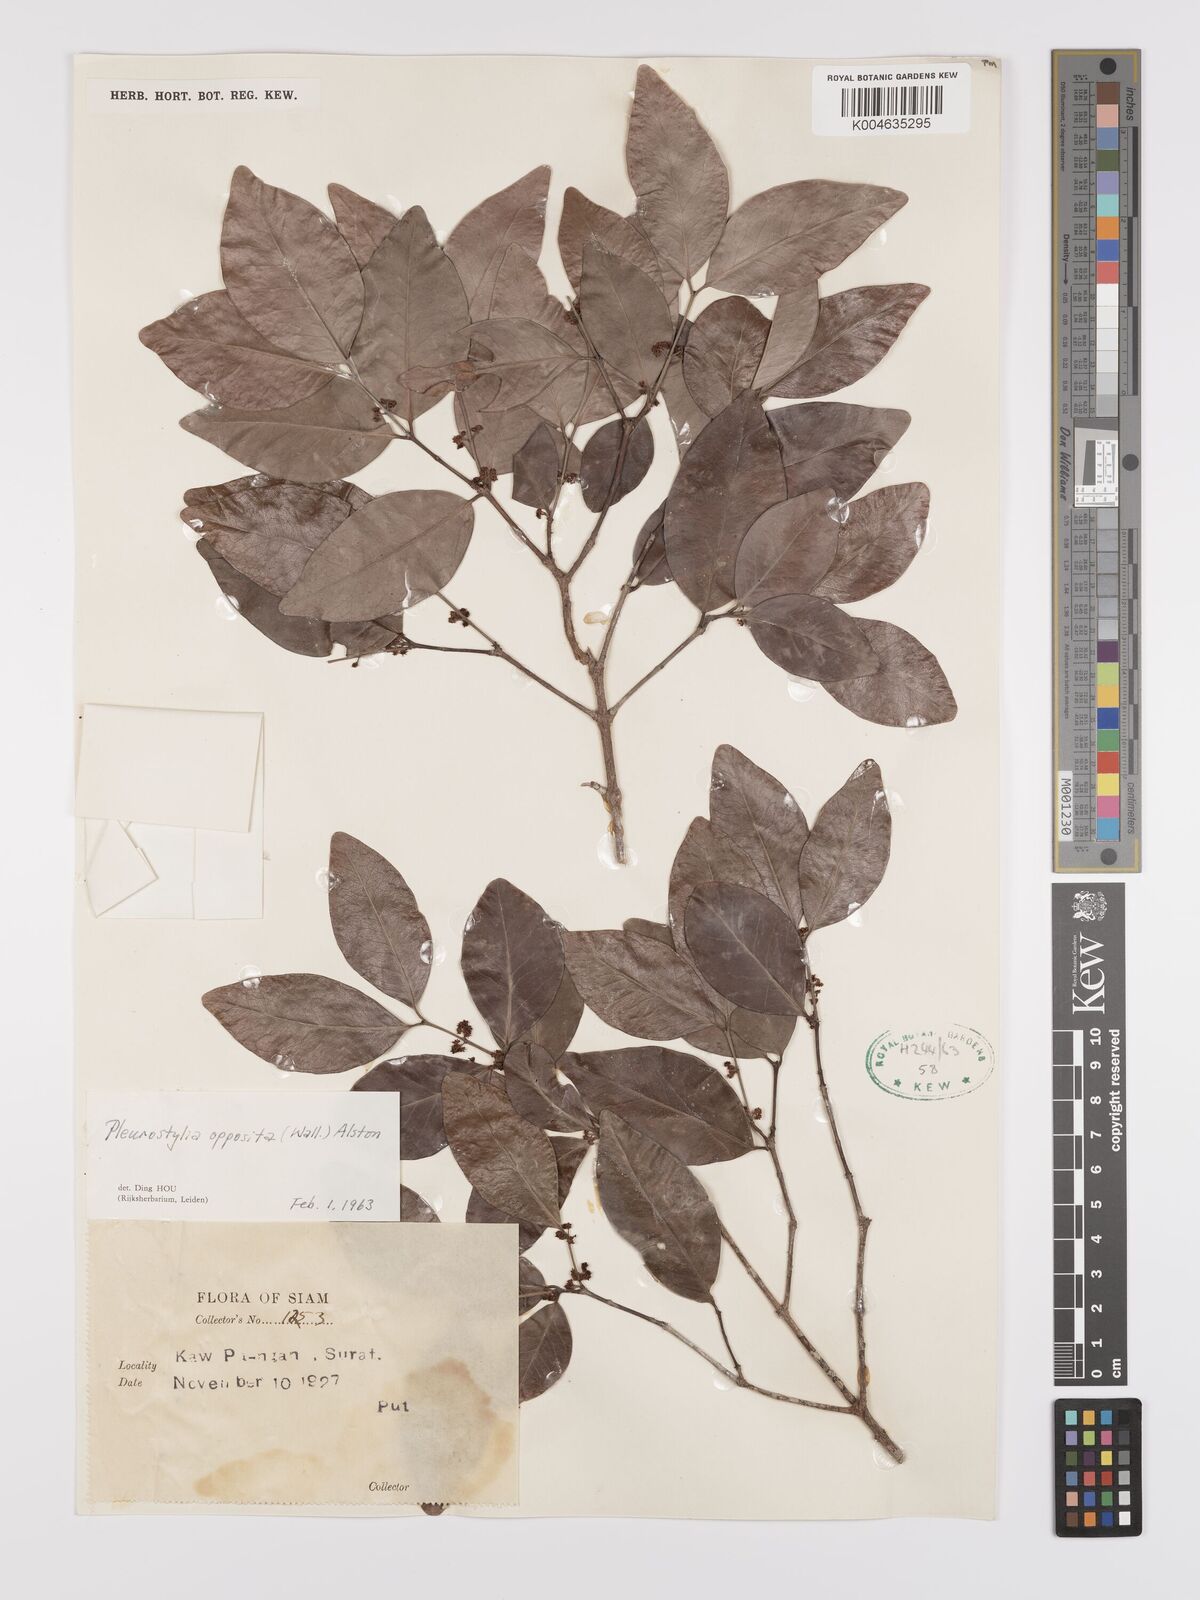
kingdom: Plantae
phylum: Tracheophyta
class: Magnoliopsida
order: Celastrales
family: Celastraceae
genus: Pleurostylia
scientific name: Pleurostylia opposita
